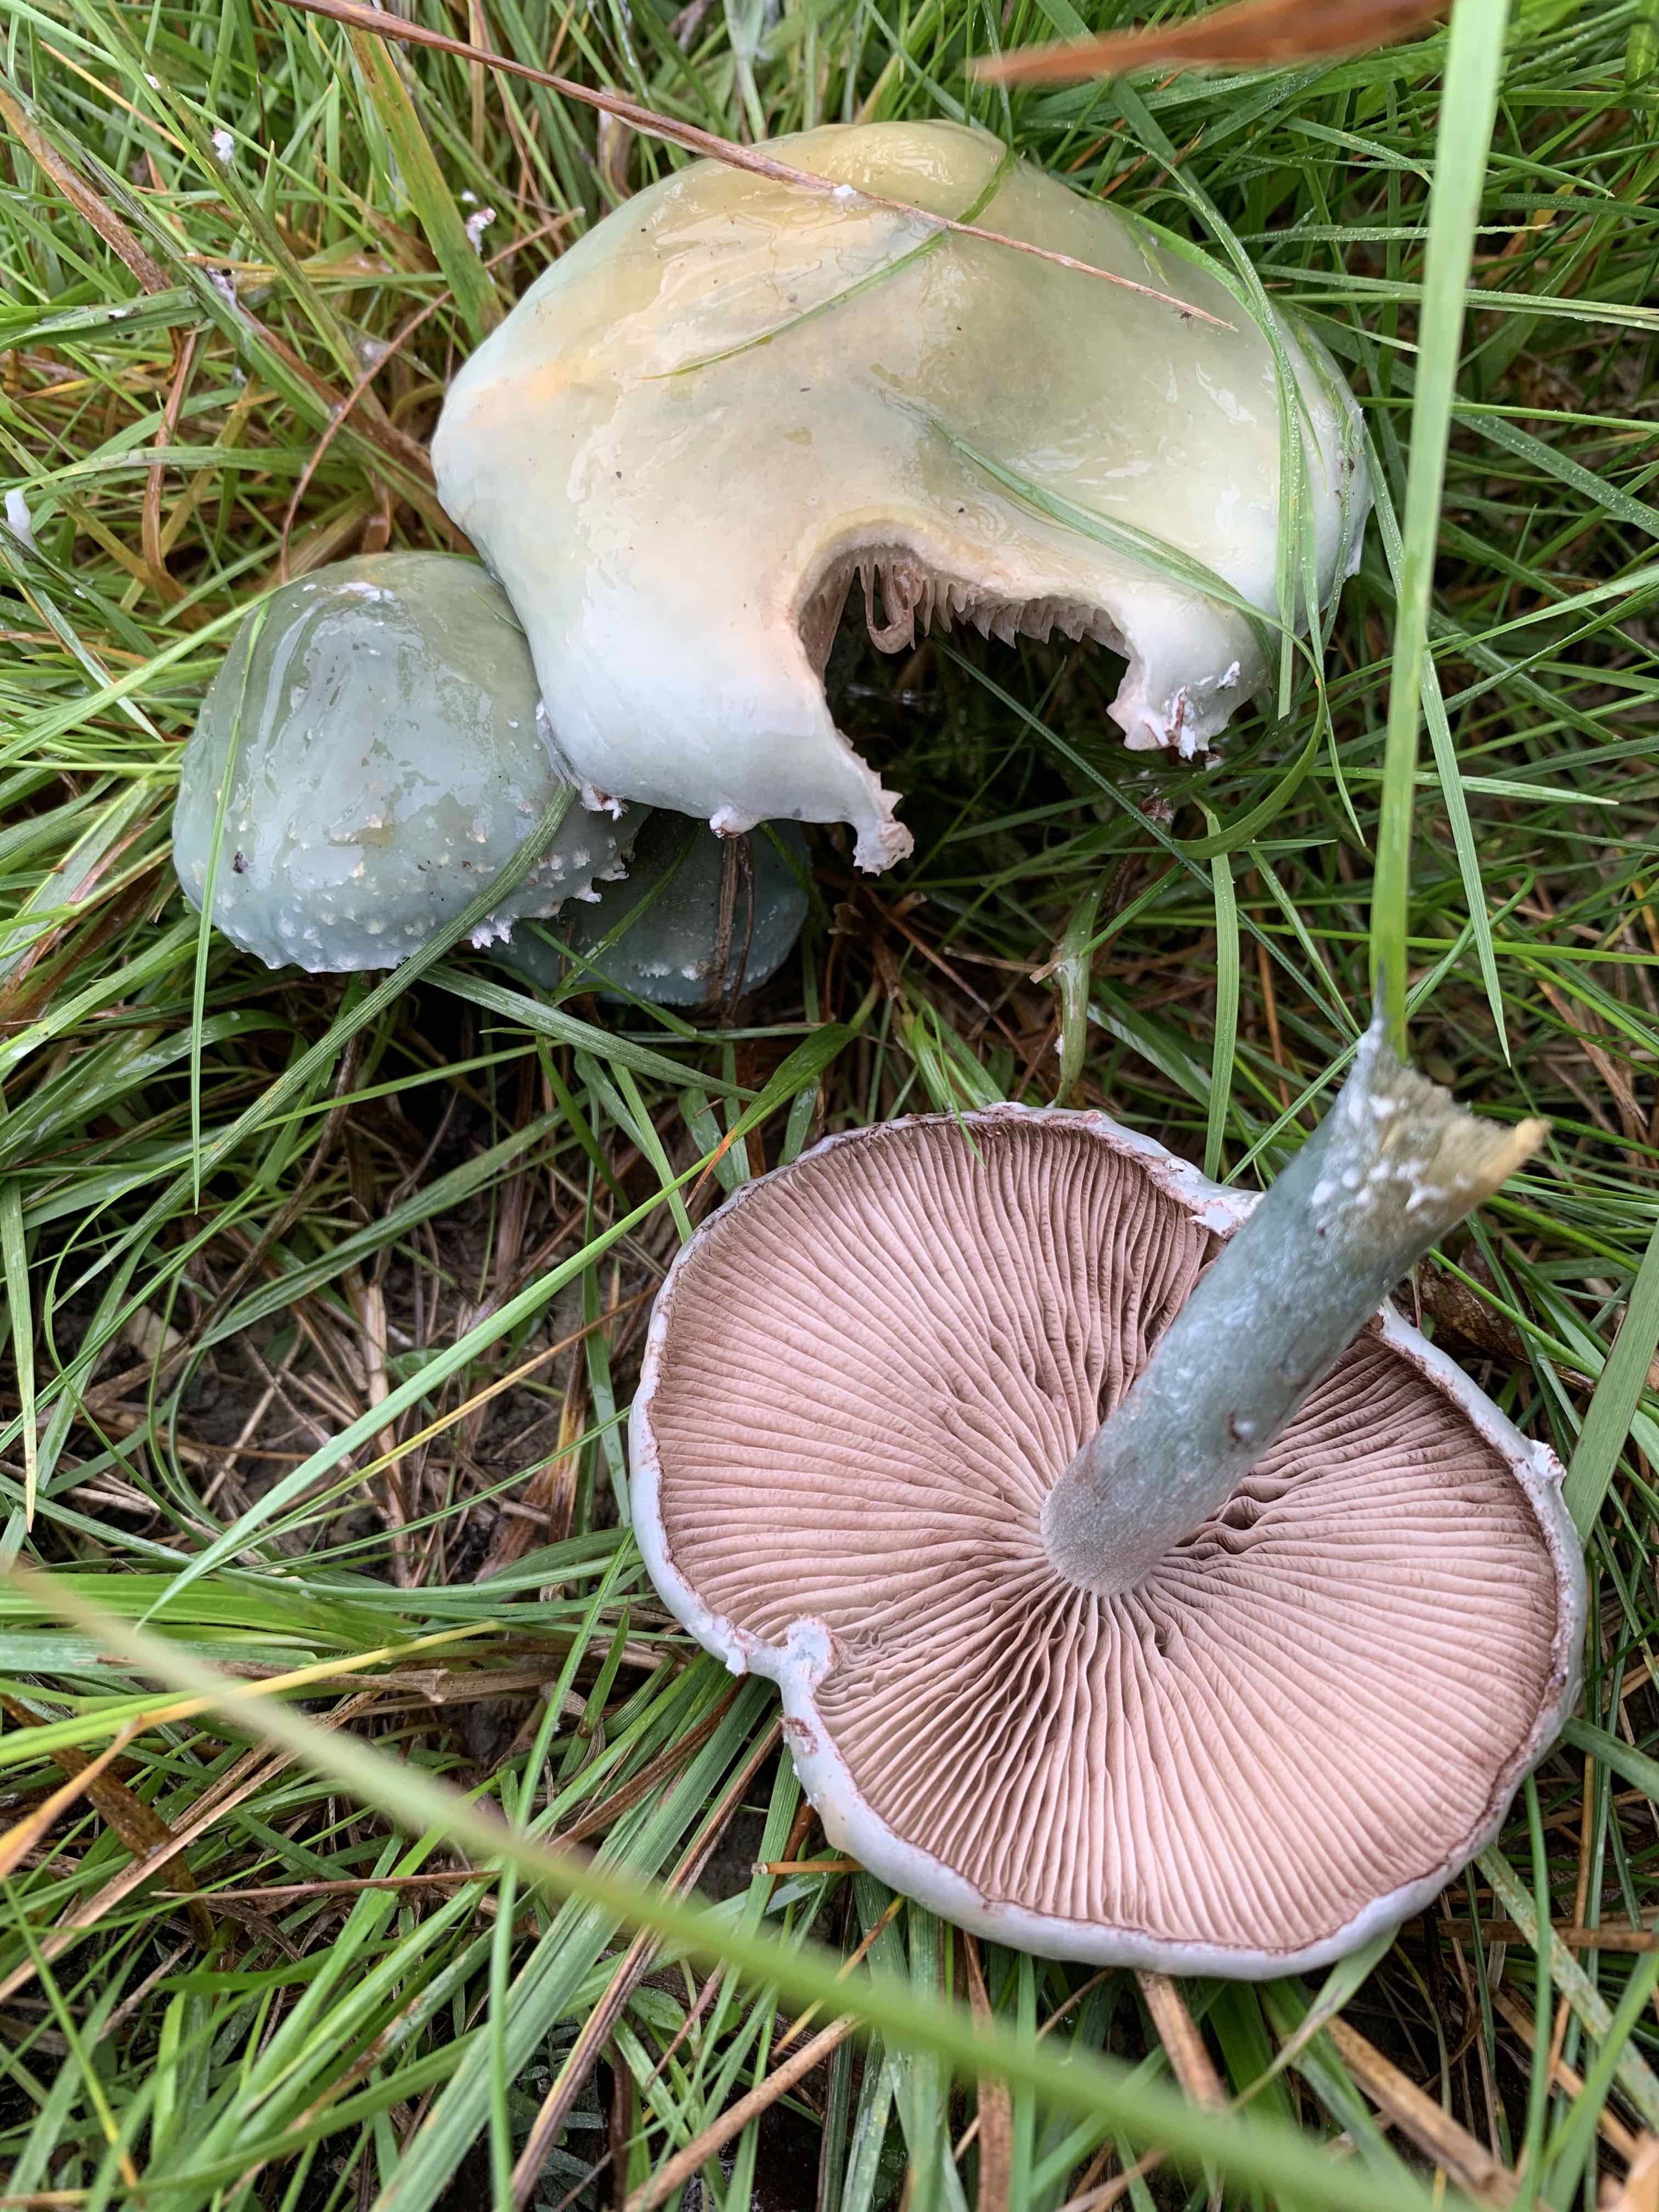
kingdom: Fungi
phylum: Basidiomycota
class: Agaricomycetes
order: Agaricales
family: Strophariaceae
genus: Stropharia
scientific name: Stropharia cyanea
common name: blågrøn bredblad
